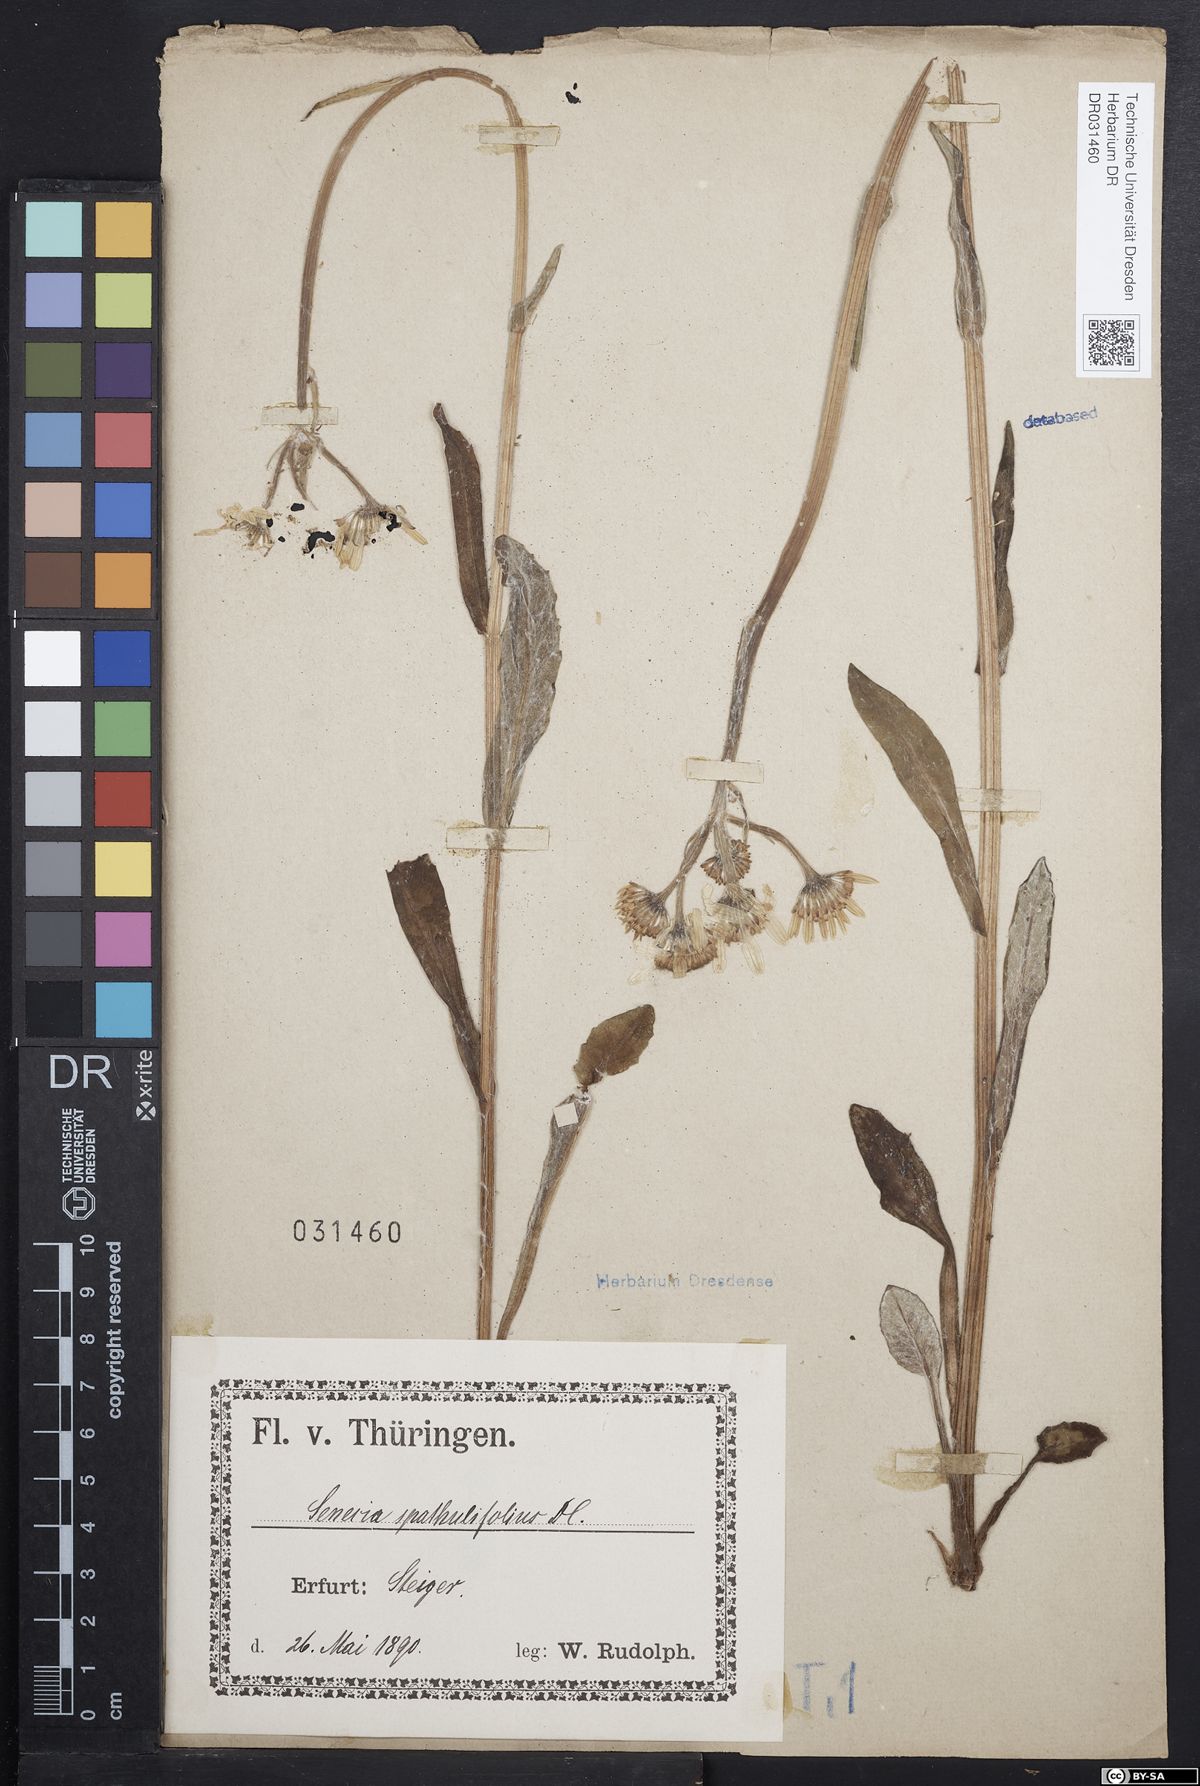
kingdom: Plantae
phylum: Tracheophyta
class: Magnoliopsida
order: Asterales
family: Asteraceae
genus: Tephroseris
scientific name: Tephroseris helenitis
